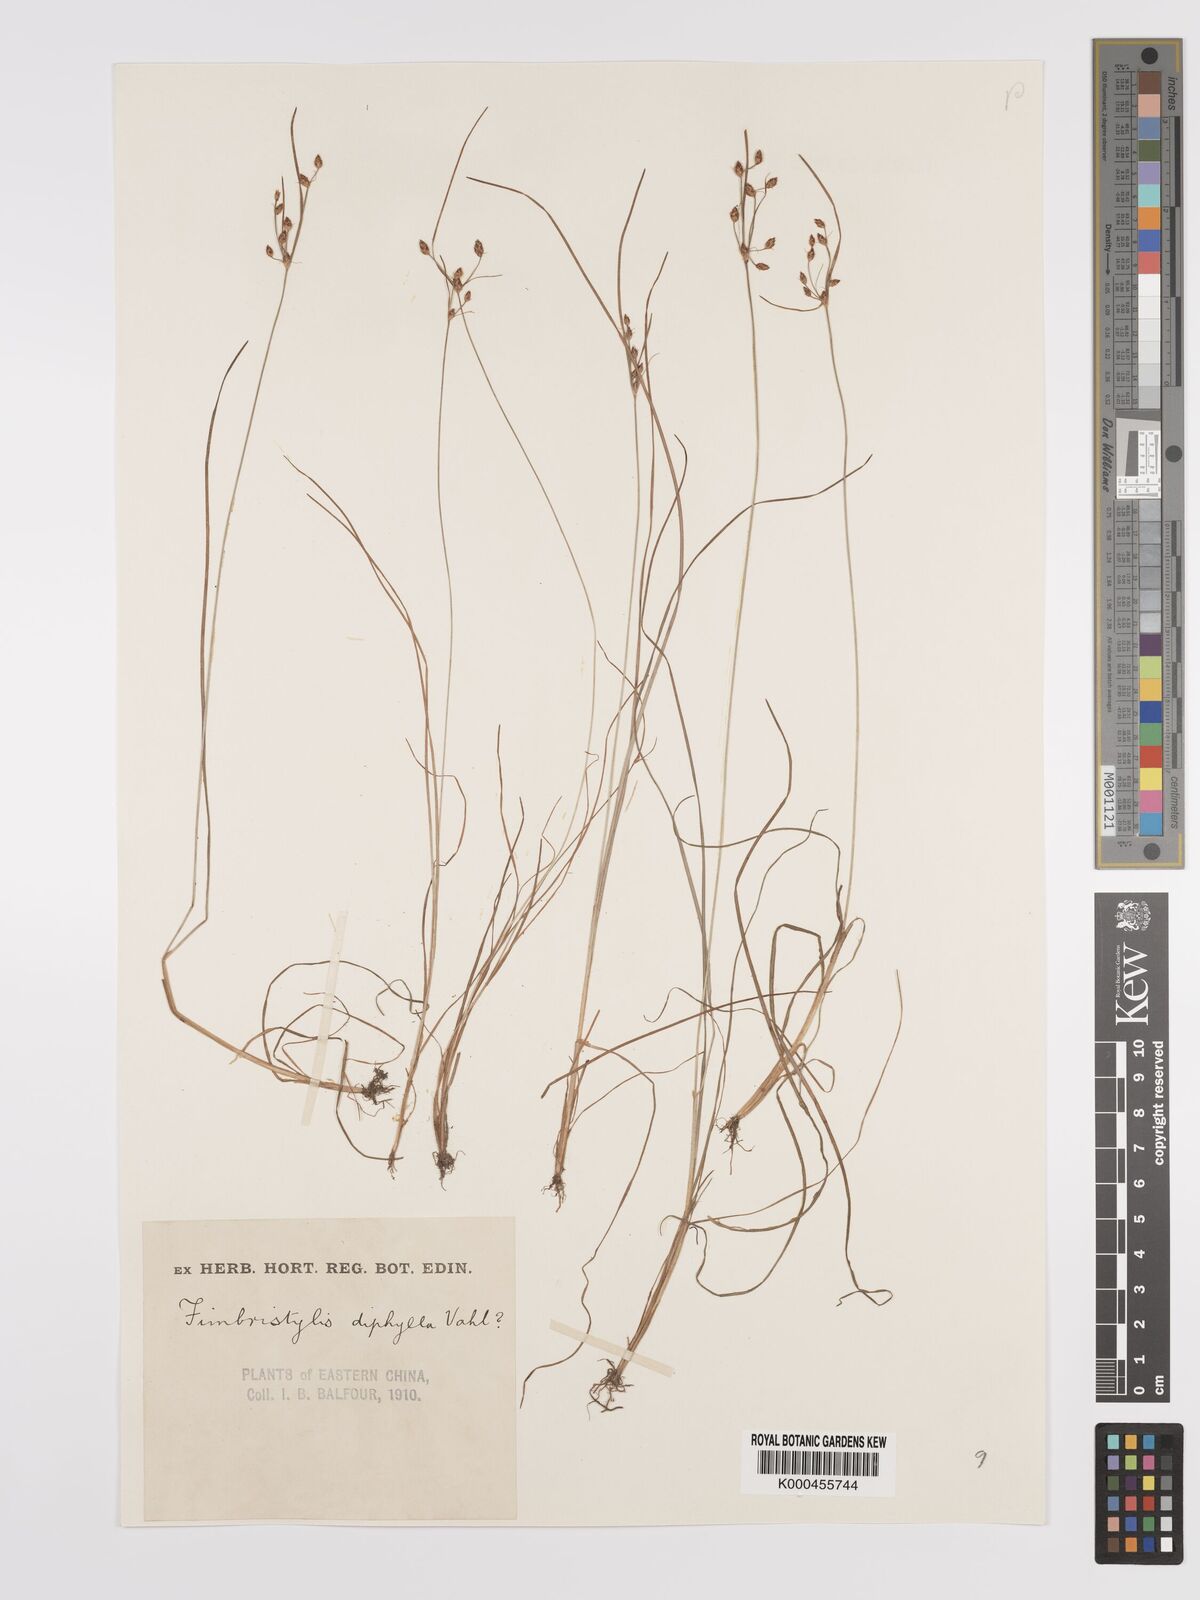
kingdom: Plantae
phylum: Tracheophyta
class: Liliopsida
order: Poales
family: Cyperaceae
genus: Fimbristylis
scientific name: Fimbristylis dichotoma
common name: Forked fimbry
